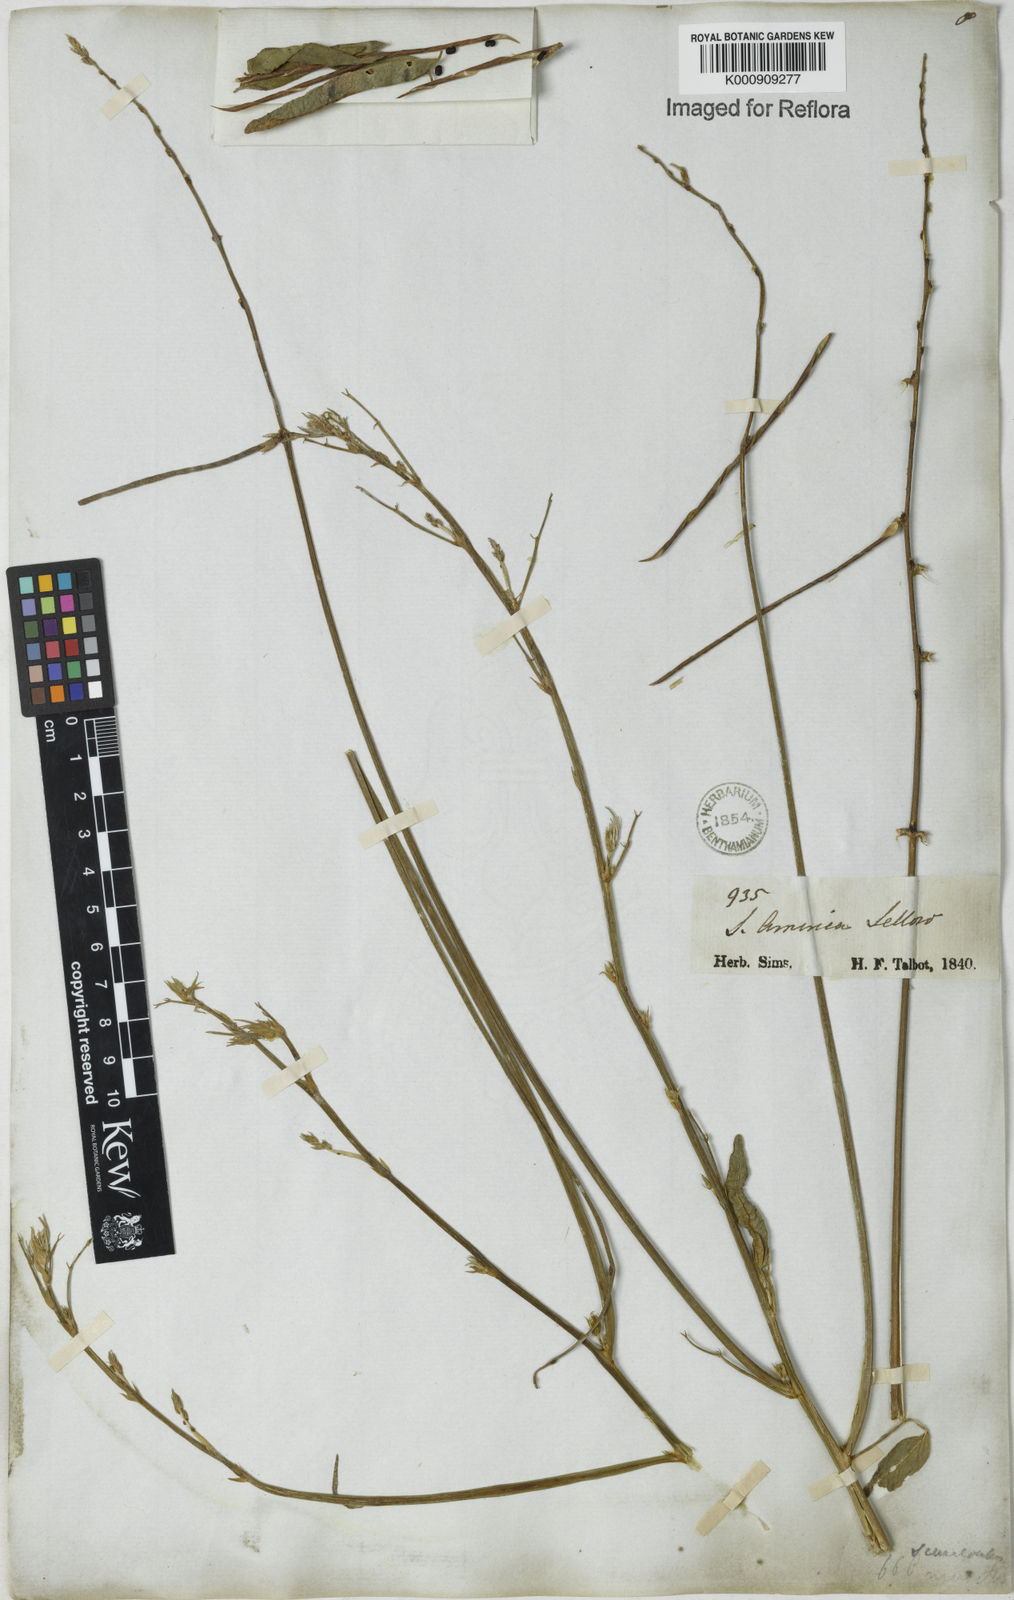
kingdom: Plantae
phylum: Tracheophyta
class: Magnoliopsida
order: Fabales
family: Fabaceae
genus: Macroptilium
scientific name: Macroptilium lathyroides
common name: Wild bushbean
